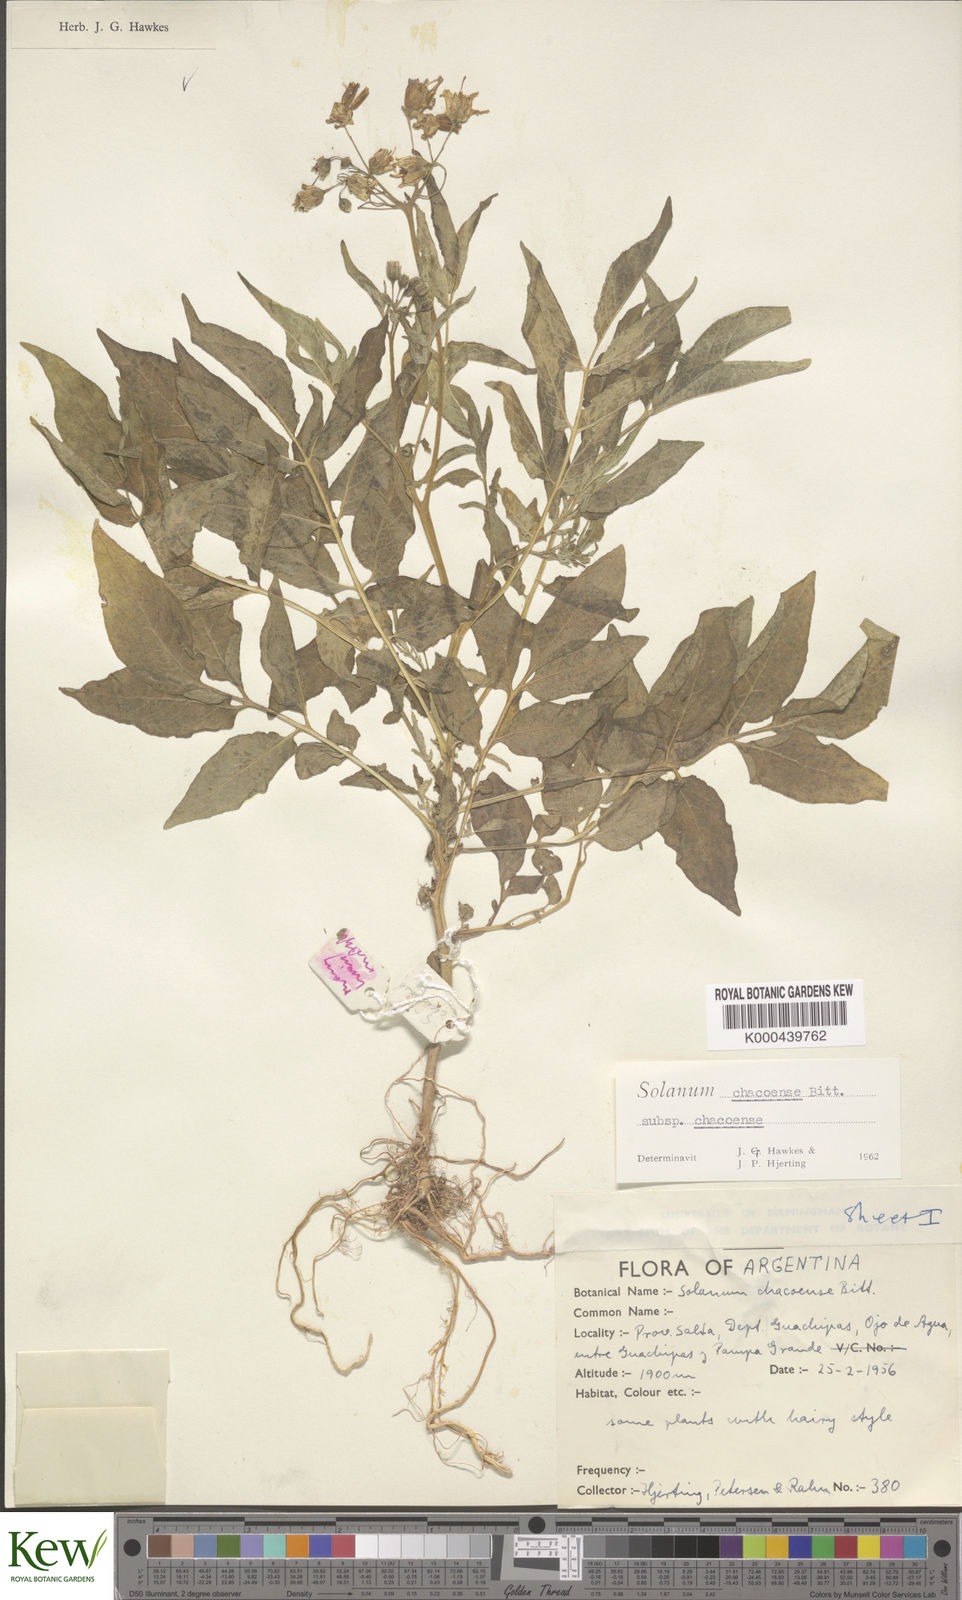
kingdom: Plantae
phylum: Tracheophyta
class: Magnoliopsida
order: Solanales
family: Solanaceae
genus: Solanum
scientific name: Solanum chacoense
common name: Chaco potato
